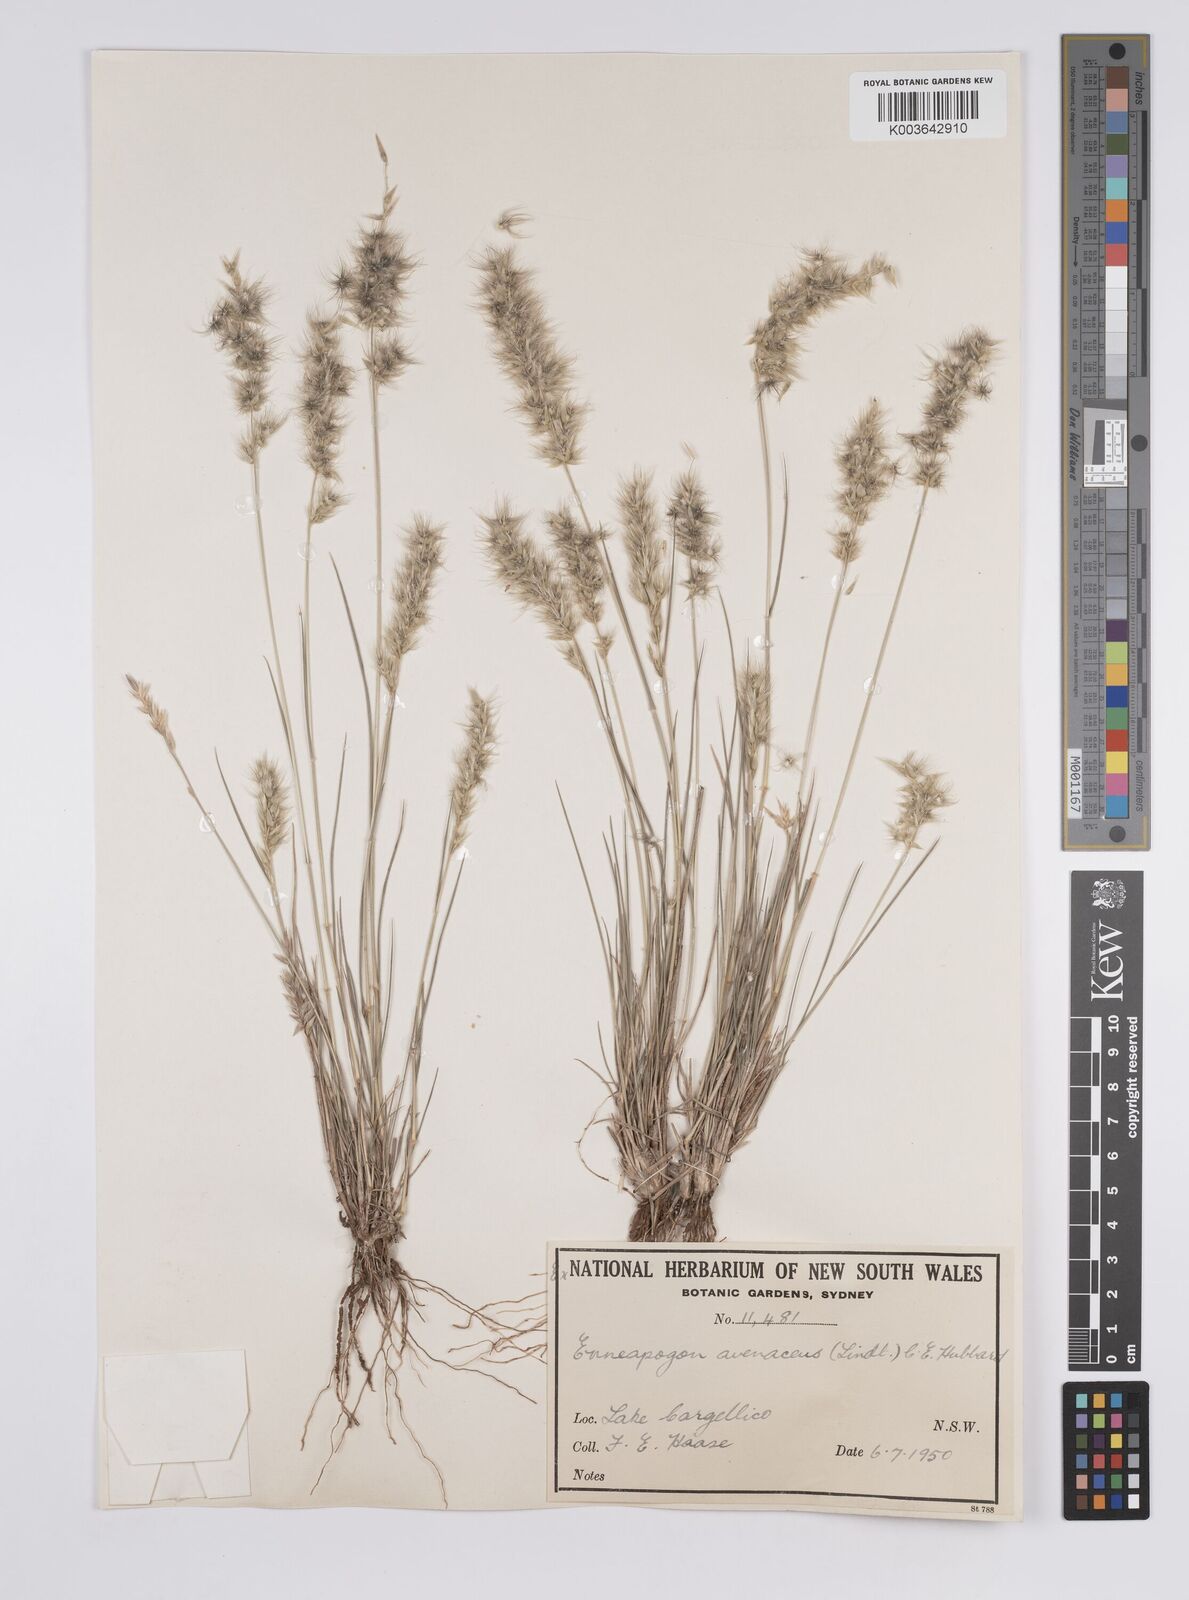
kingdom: Plantae
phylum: Tracheophyta
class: Liliopsida
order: Poales
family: Poaceae
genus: Enneapogon
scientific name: Enneapogon avenaceus
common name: Hairy oat grass
